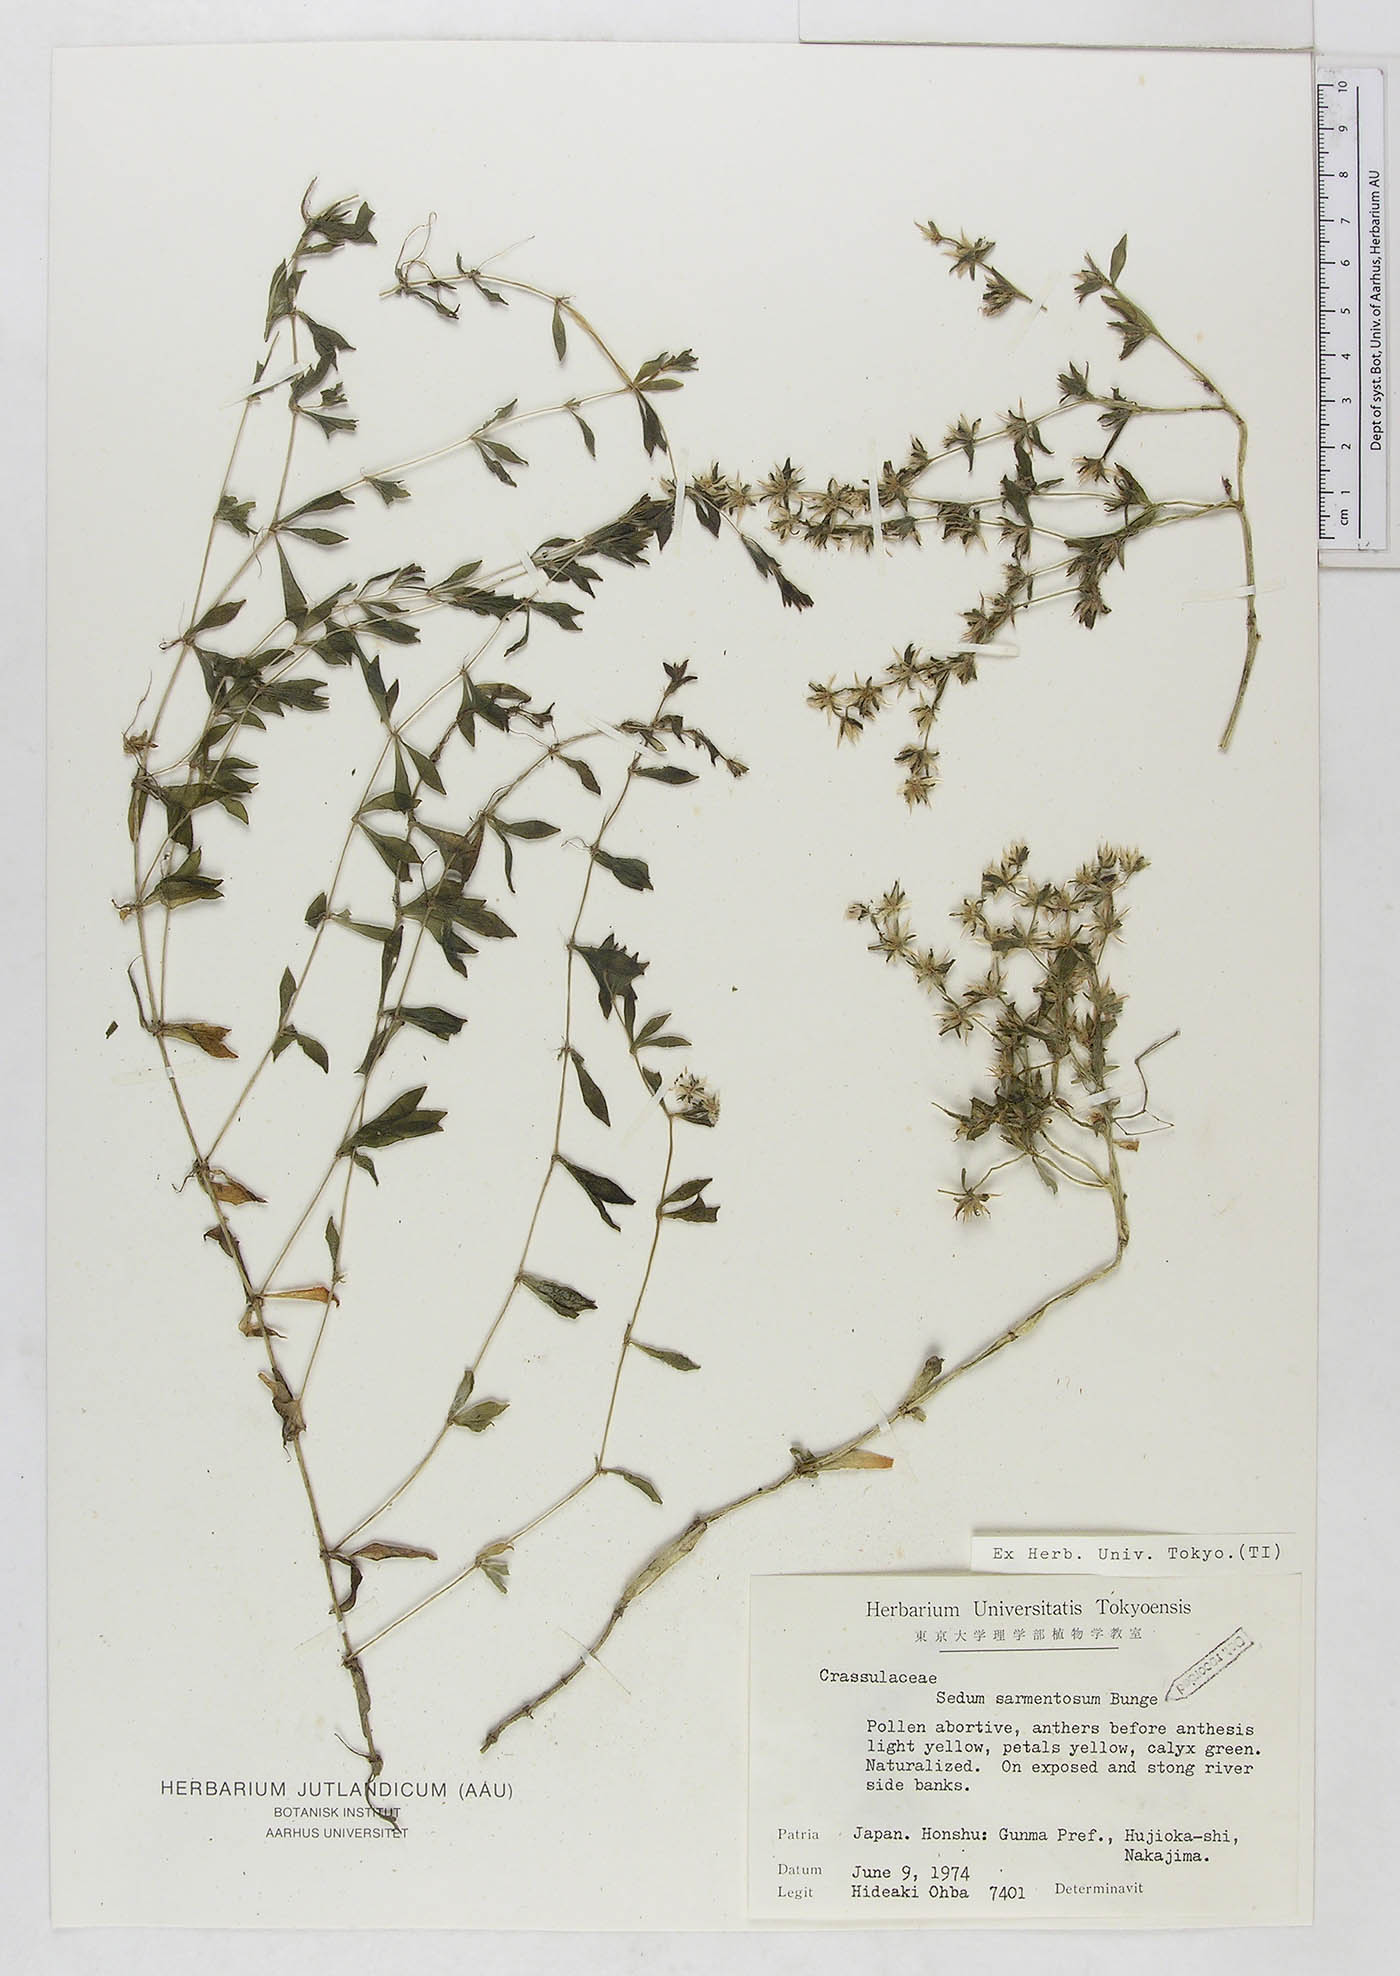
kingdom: Plantae
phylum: Tracheophyta
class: Magnoliopsida
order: Saxifragales
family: Crassulaceae
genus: Sedum
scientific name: Sedum sarmentosum
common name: Stringy stonecrop
